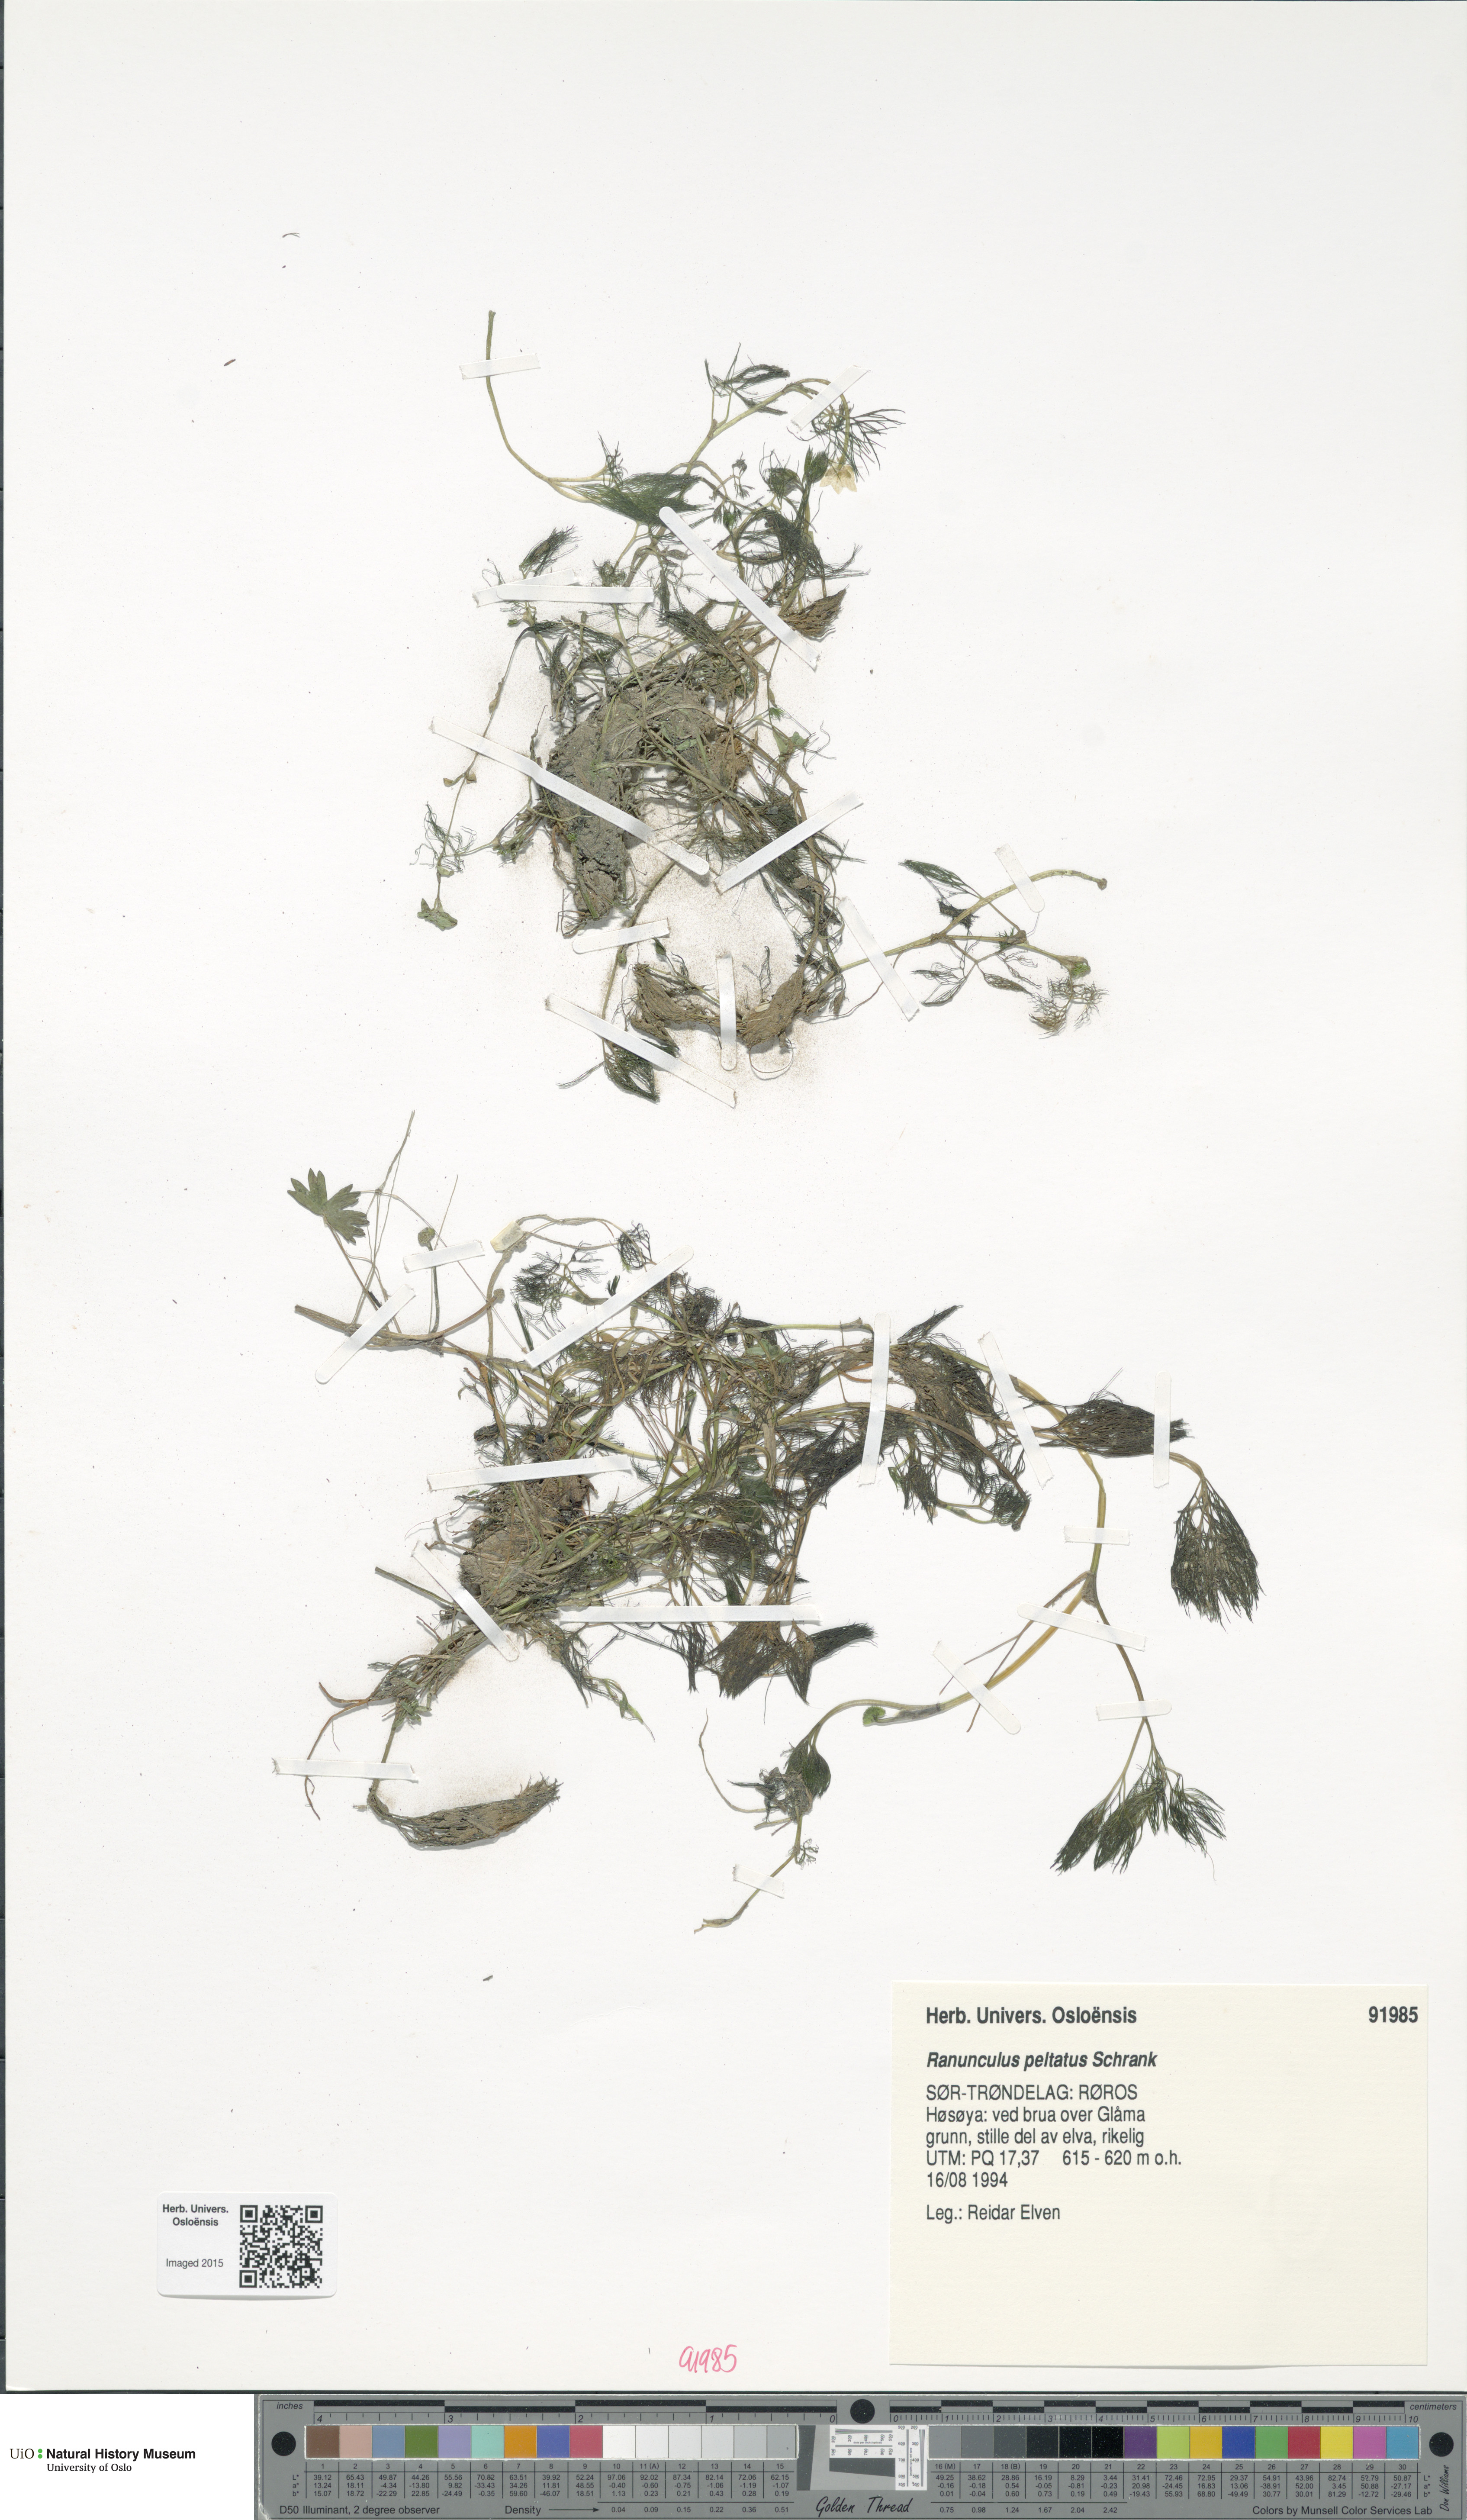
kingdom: Plantae
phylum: Tracheophyta
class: Magnoliopsida
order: Ranunculales
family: Ranunculaceae
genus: Ranunculus
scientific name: Ranunculus peltatus
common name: Pond water-crowfoot
